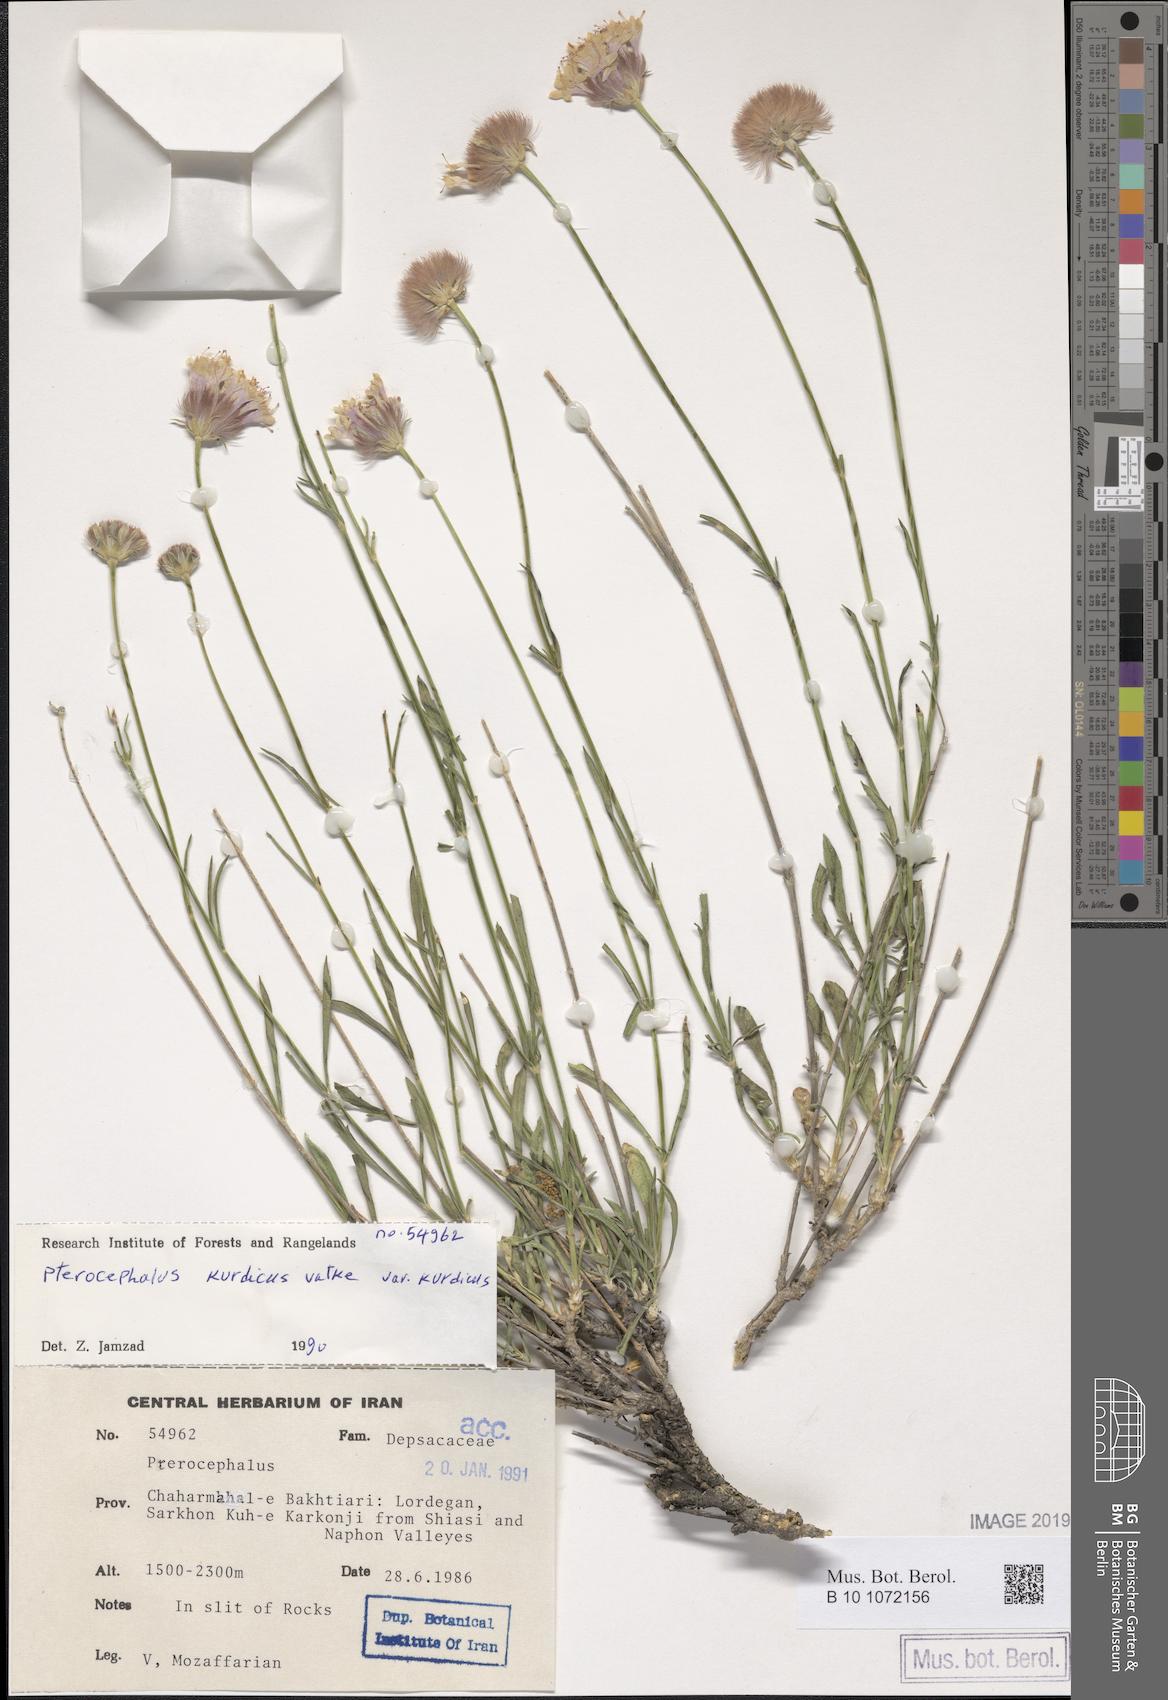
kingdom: Plantae
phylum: Tracheophyta
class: Magnoliopsida
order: Dipsacales
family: Caprifoliaceae
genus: Pterocephalus
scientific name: Pterocephalus strictus
